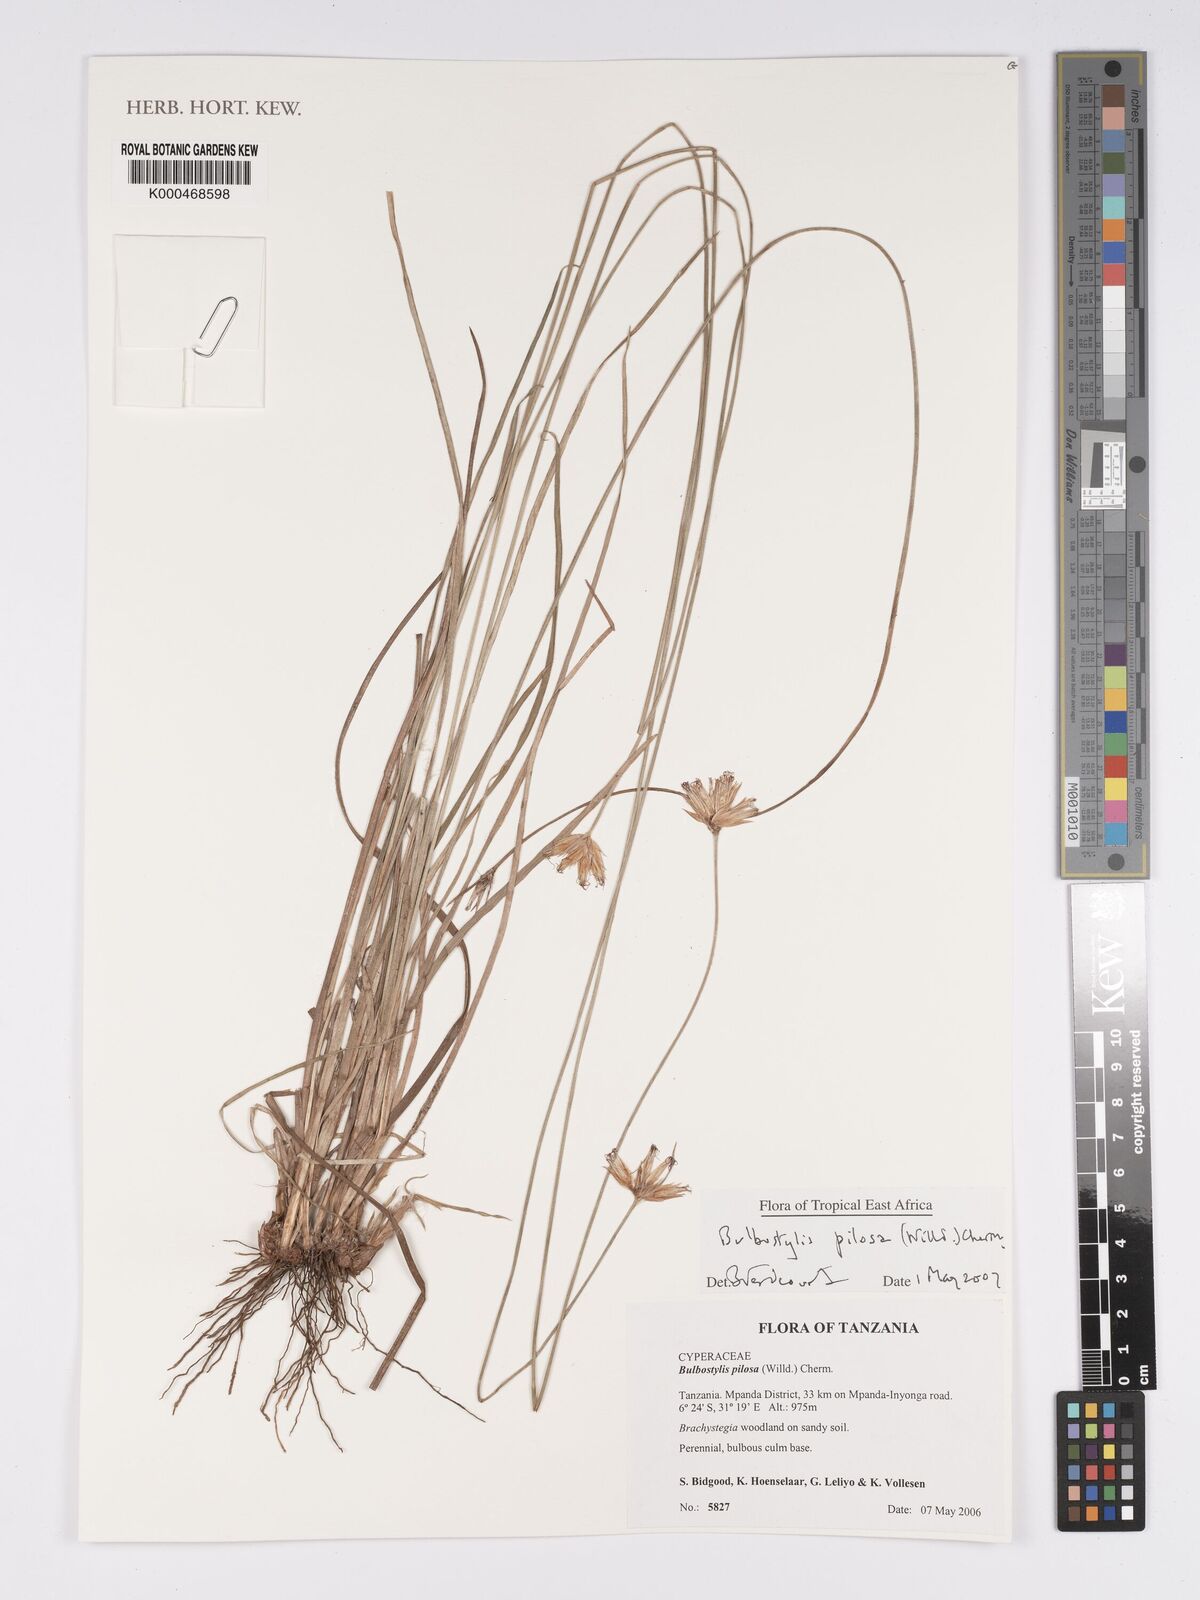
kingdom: Plantae
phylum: Tracheophyta
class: Liliopsida
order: Poales
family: Cyperaceae
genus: Bulbostylis
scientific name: Bulbostylis pilosa
